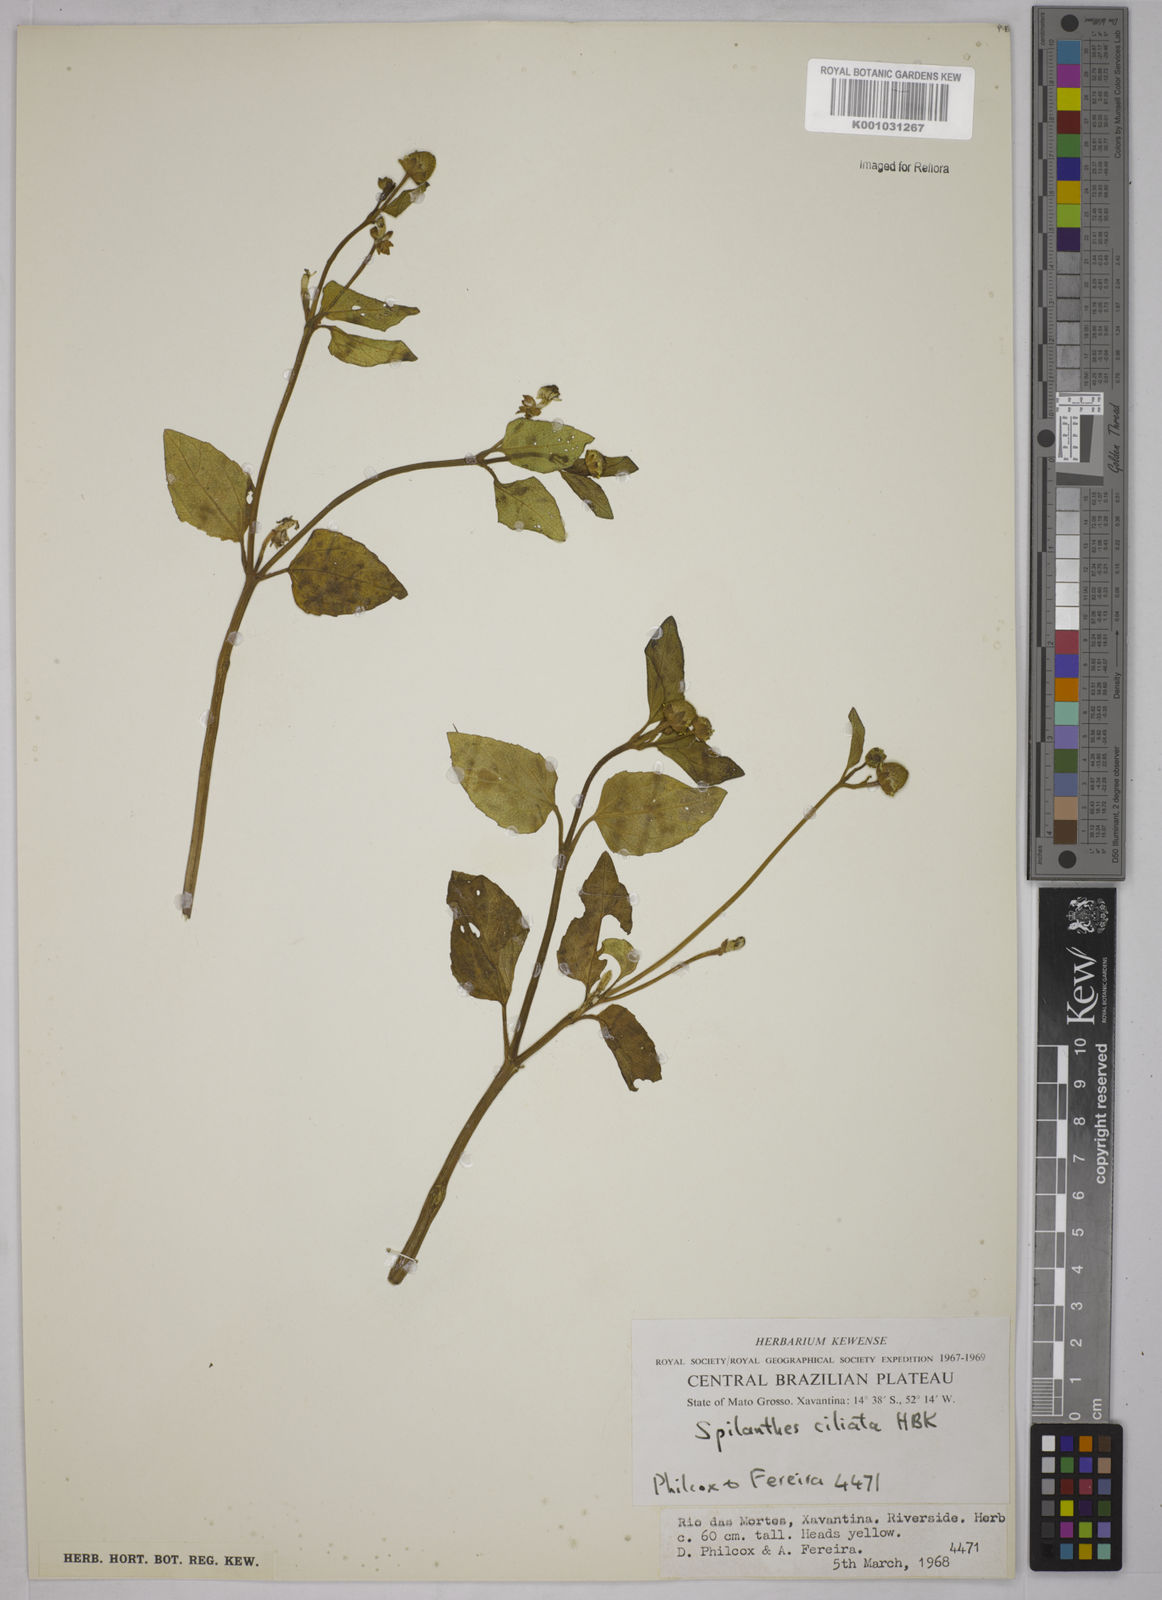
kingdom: Plantae
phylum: Tracheophyta
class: Magnoliopsida
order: Asterales
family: Asteraceae
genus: Acmella
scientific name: Acmella ciliata
